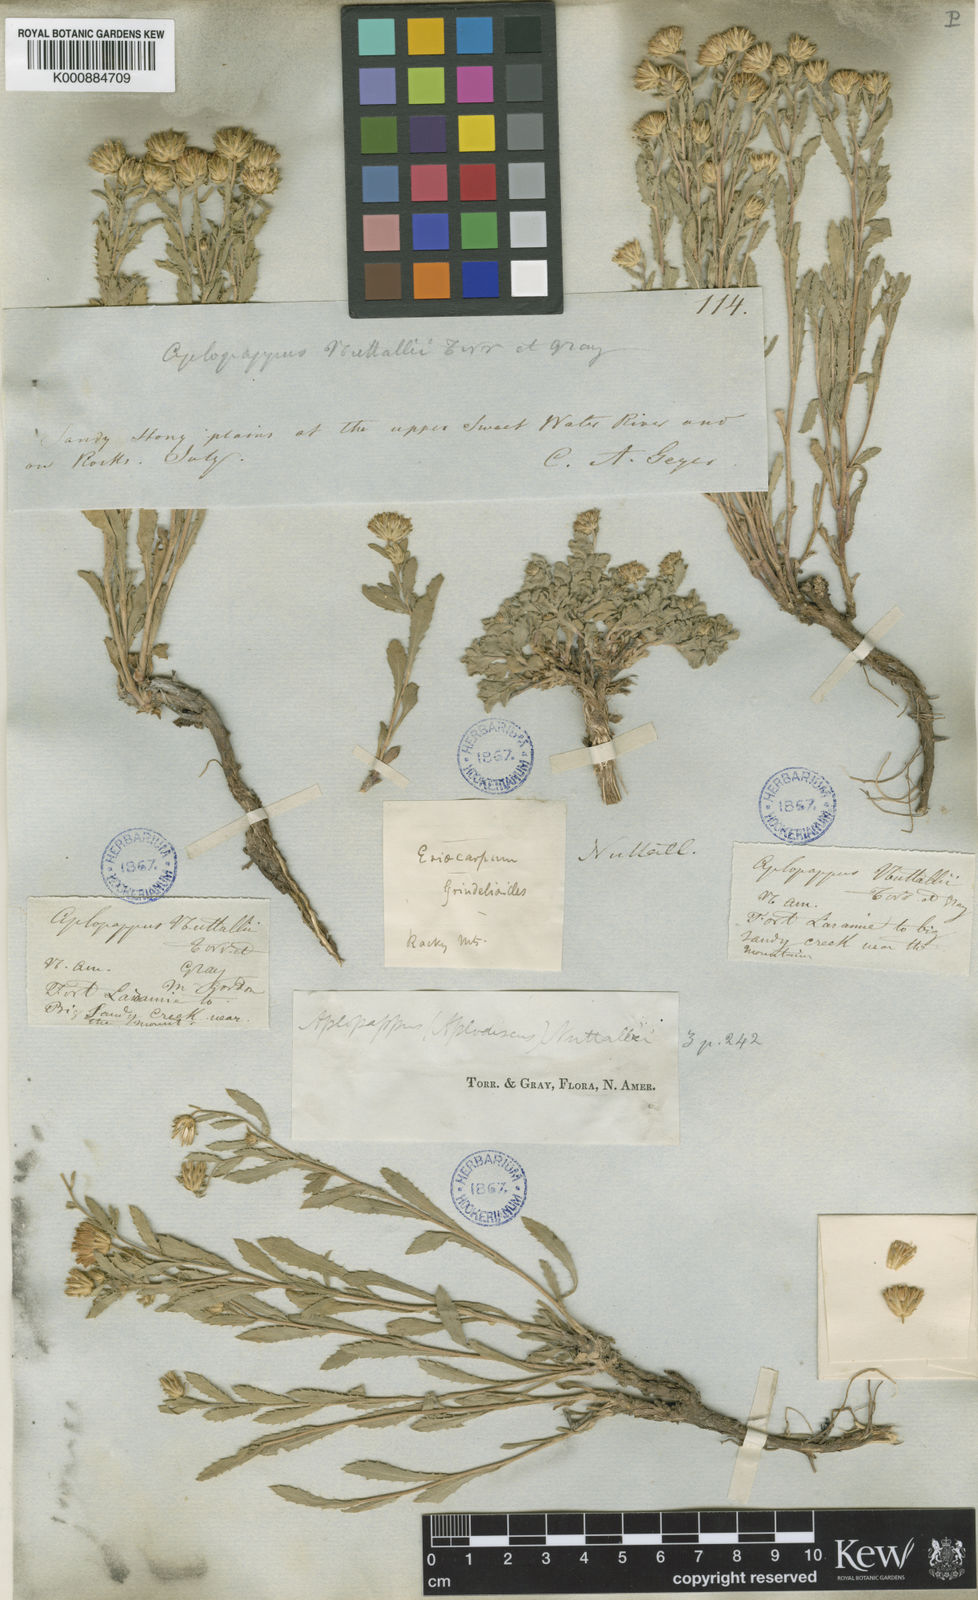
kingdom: Plantae
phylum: Tracheophyta
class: Magnoliopsida
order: Asterales
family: Asteraceae
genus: Haplopappus
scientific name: Haplopappus
